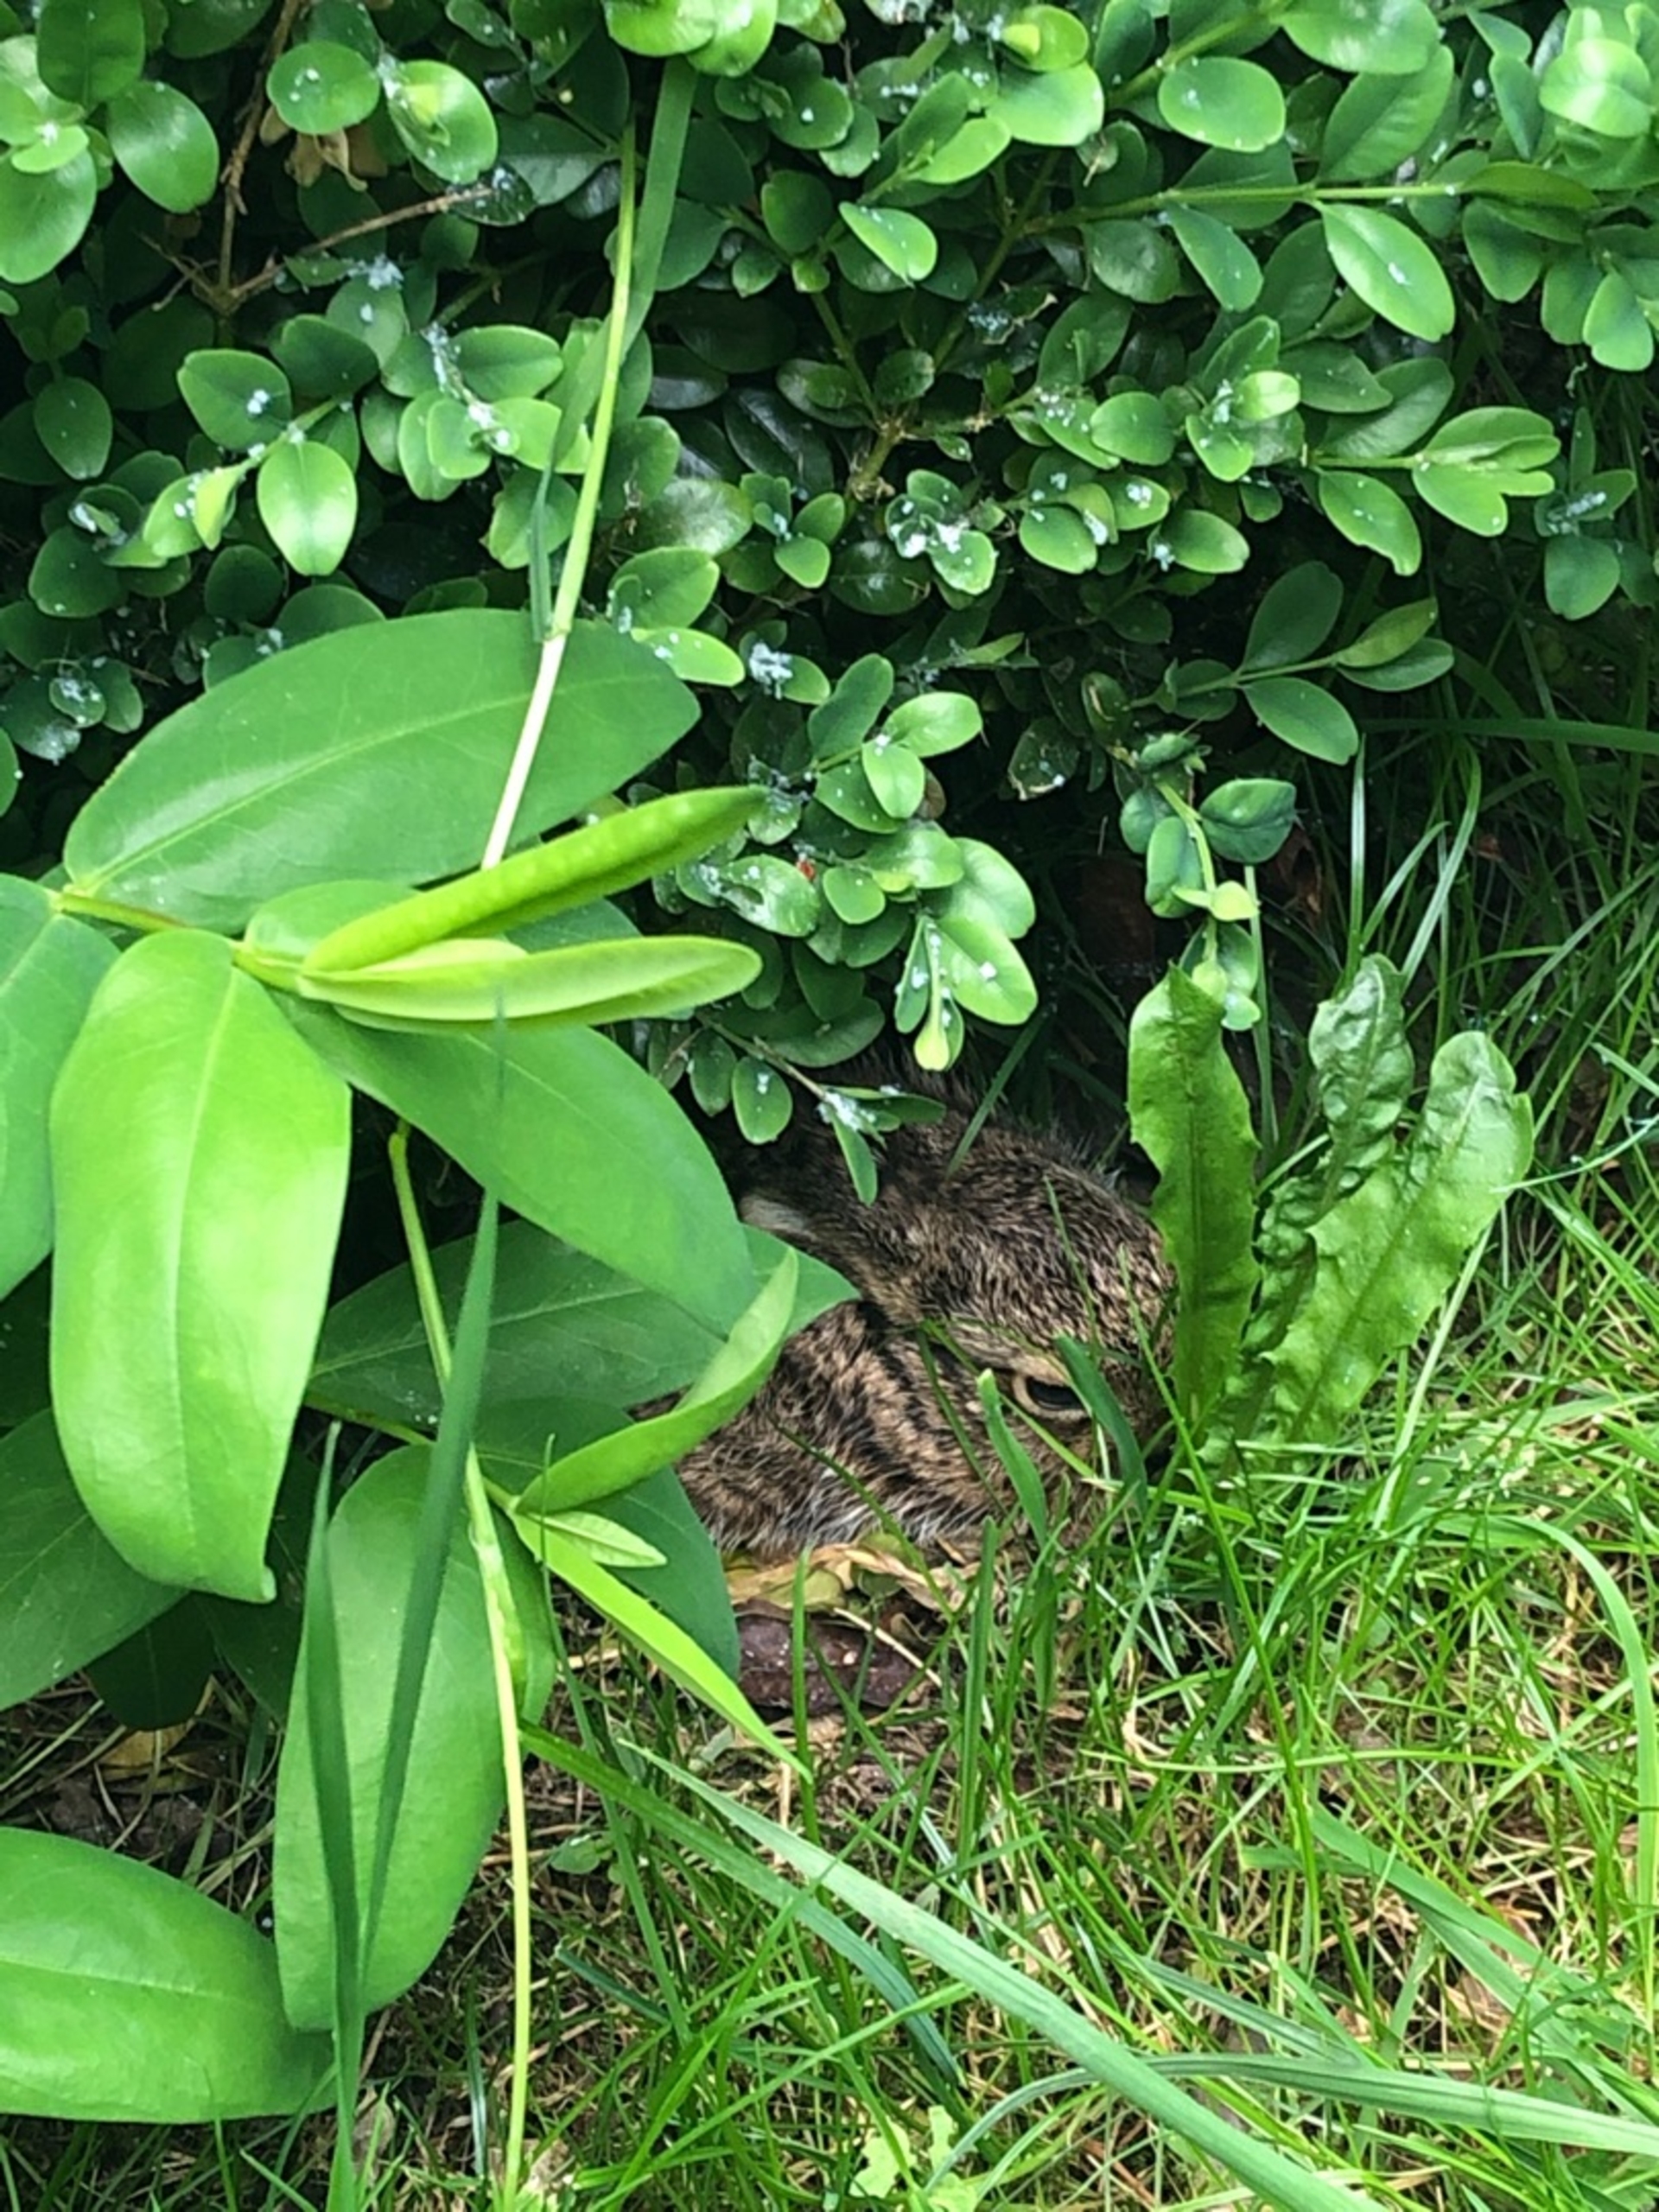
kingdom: Animalia
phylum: Chordata
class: Mammalia
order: Lagomorpha
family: Leporidae
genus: Lepus
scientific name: Lepus europaeus
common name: Hare
